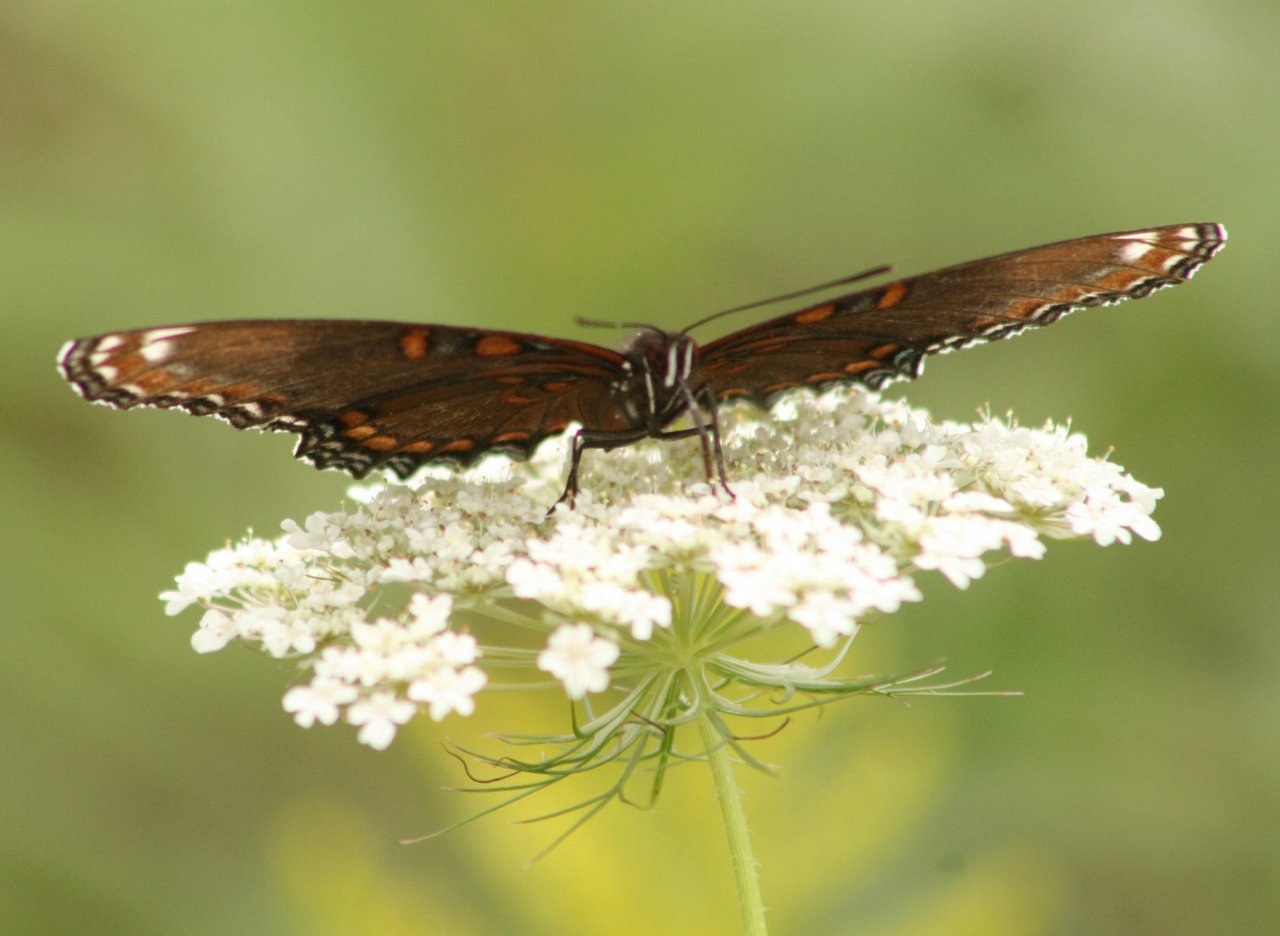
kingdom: Animalia
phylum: Arthropoda
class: Insecta
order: Lepidoptera
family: Nymphalidae
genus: Limenitis
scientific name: Limenitis astyanax
